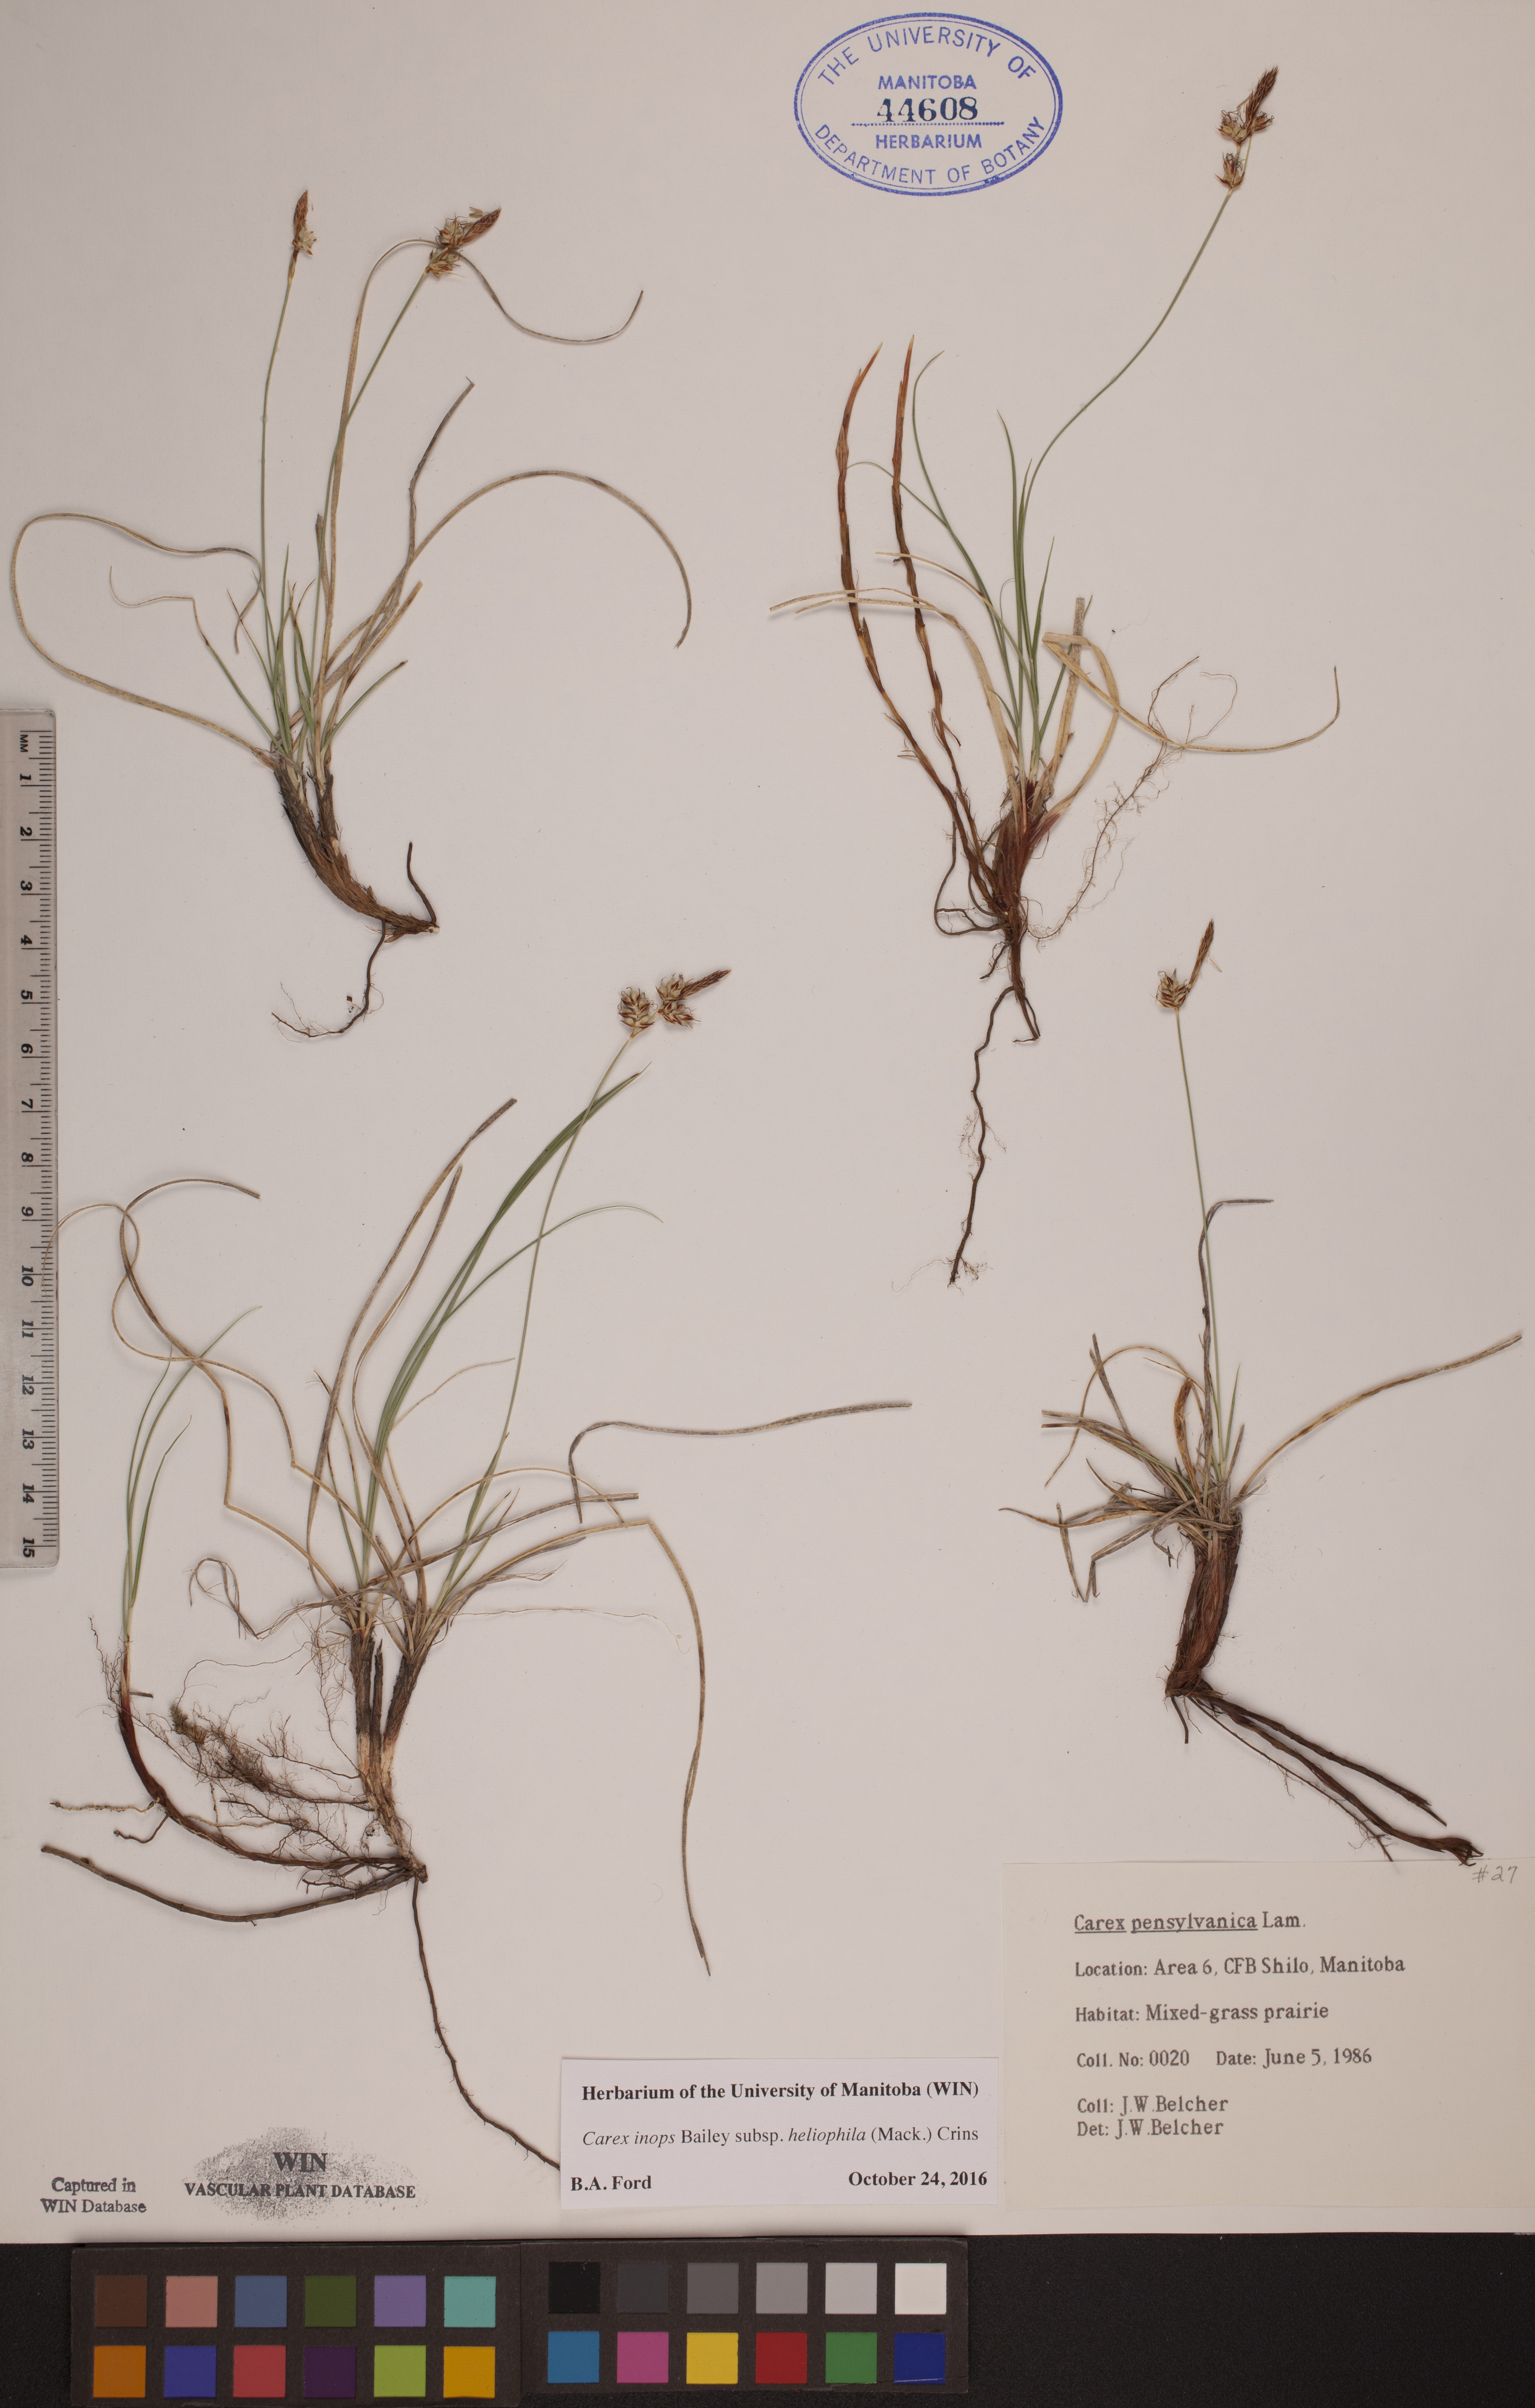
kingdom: Plantae
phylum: Tracheophyta
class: Liliopsida
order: Poales
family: Cyperaceae
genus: Carex
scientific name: Carex inops
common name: Long-stolon sedge
